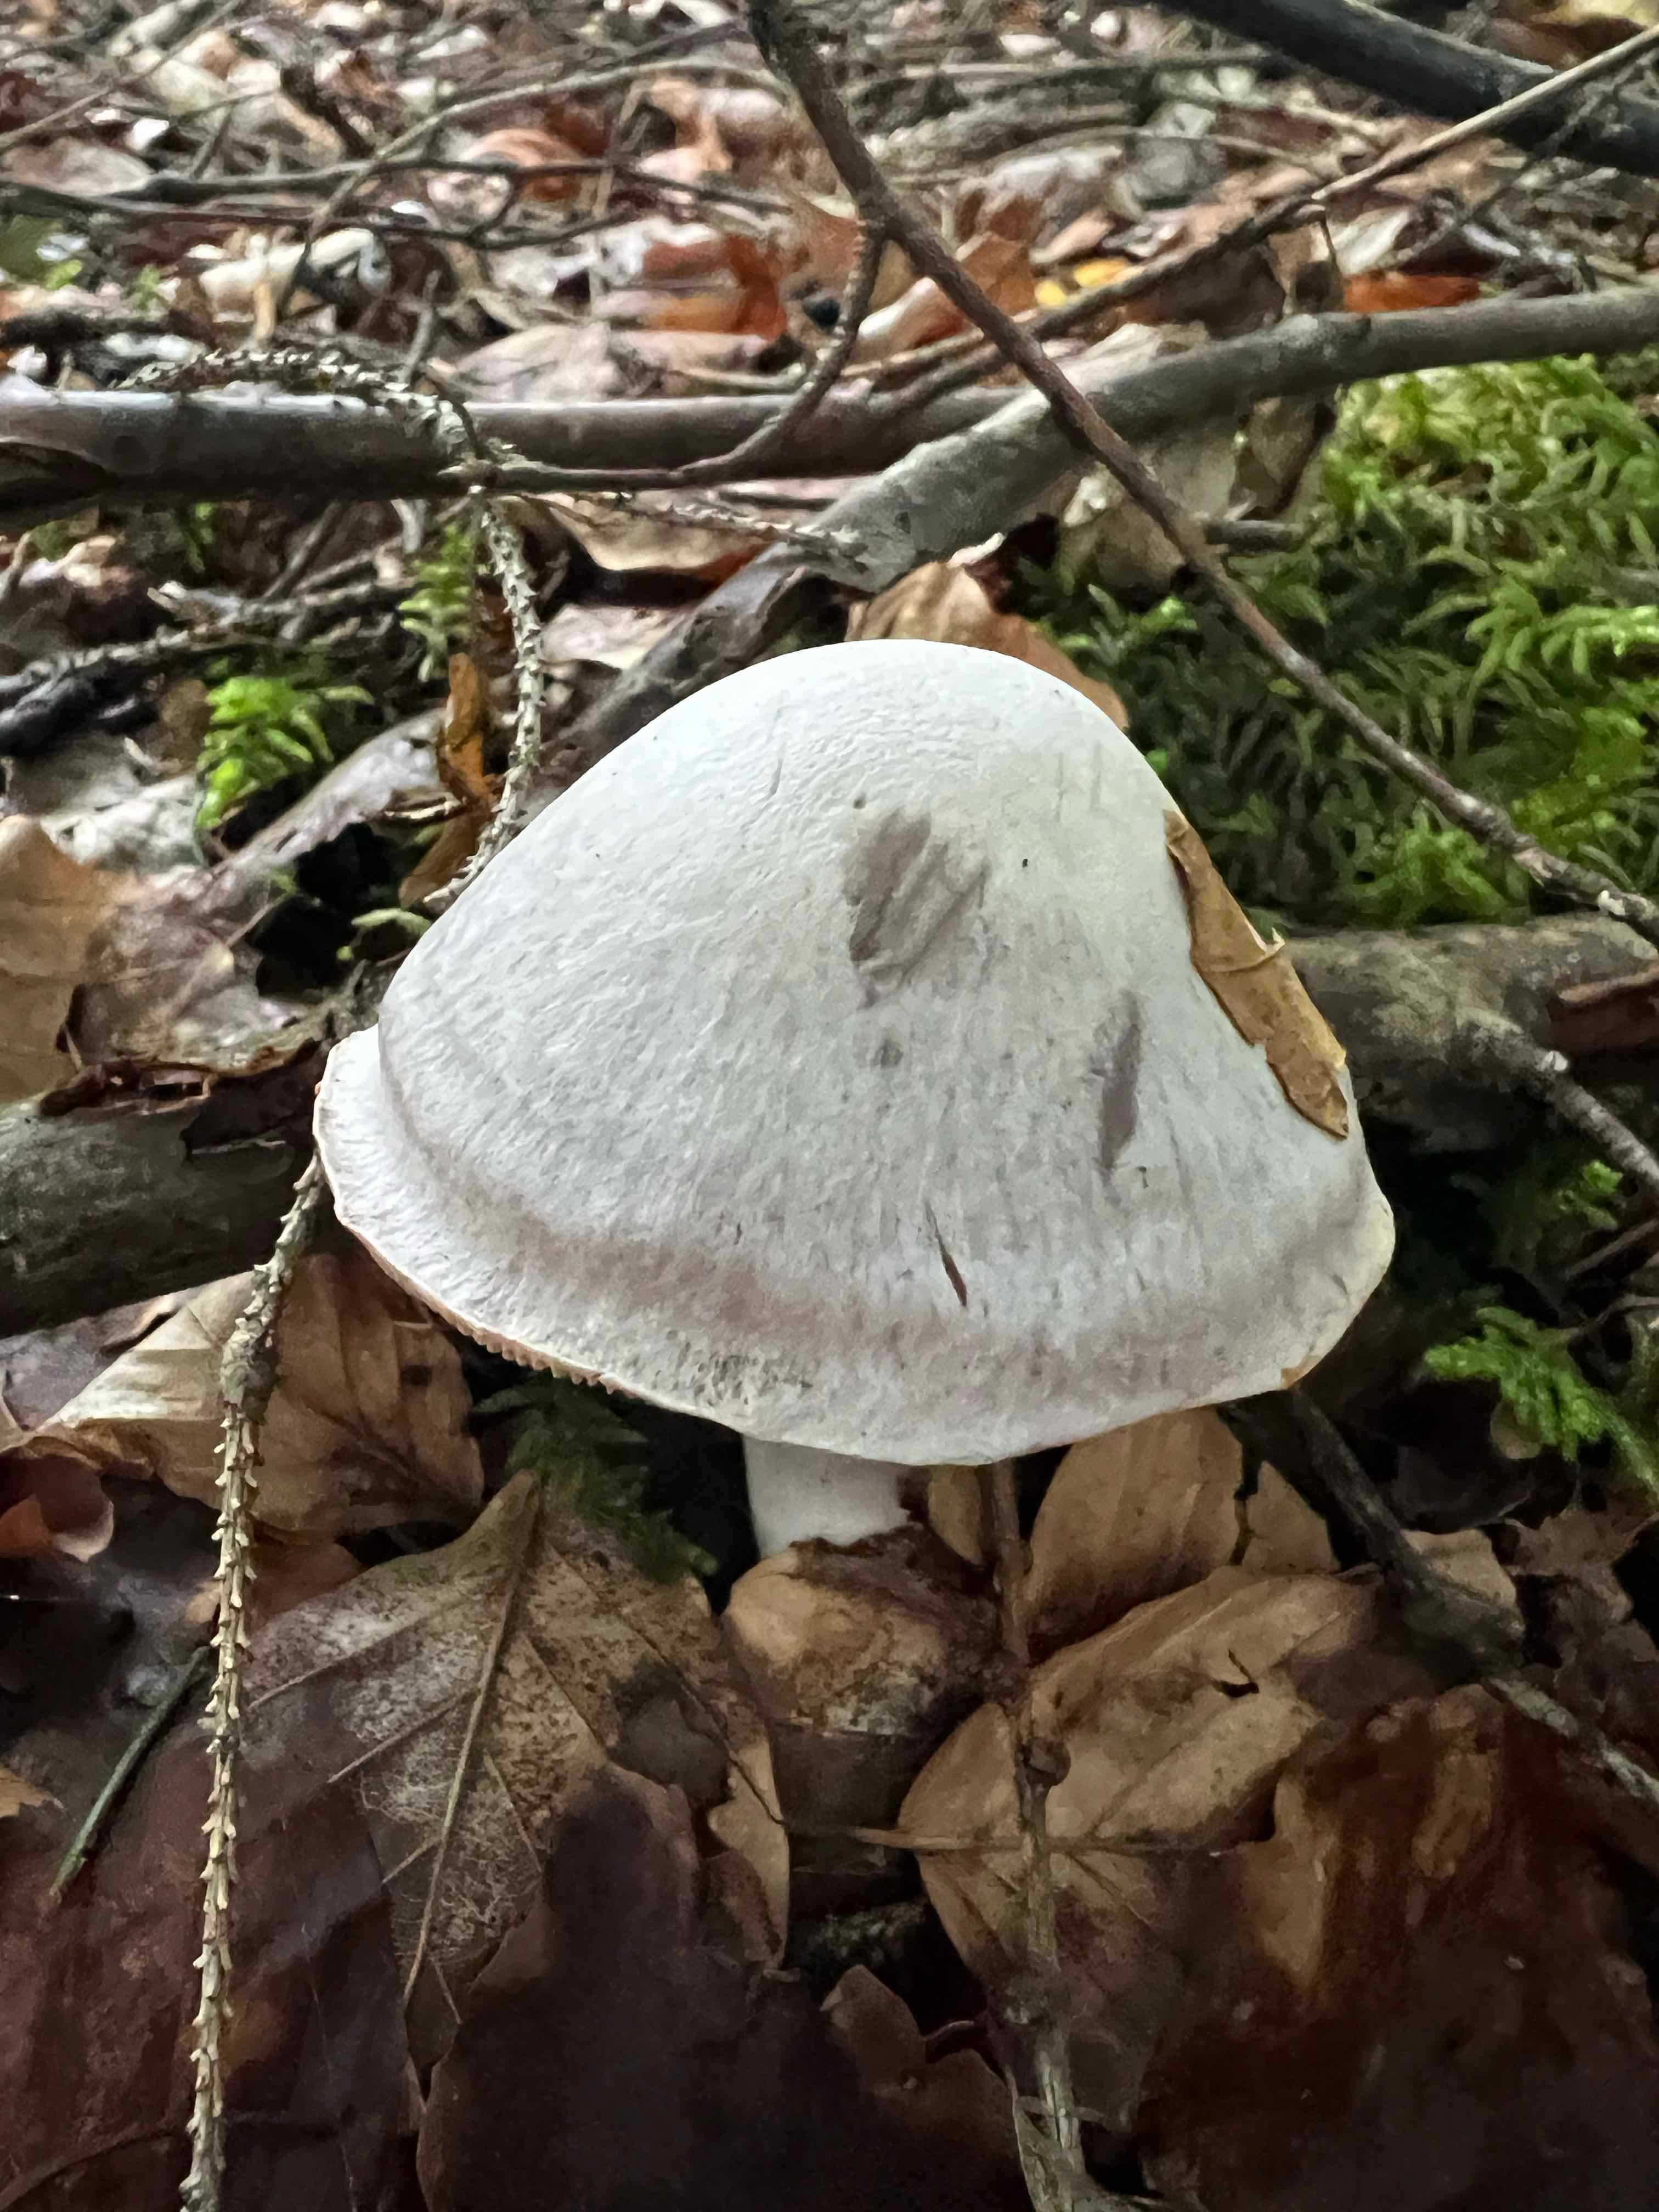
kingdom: Fungi
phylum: Basidiomycota
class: Agaricomycetes
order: Agaricales
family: Cortinariaceae
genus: Cortinarius
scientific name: Cortinarius alboviolaceus
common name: lysviolet slørhat
